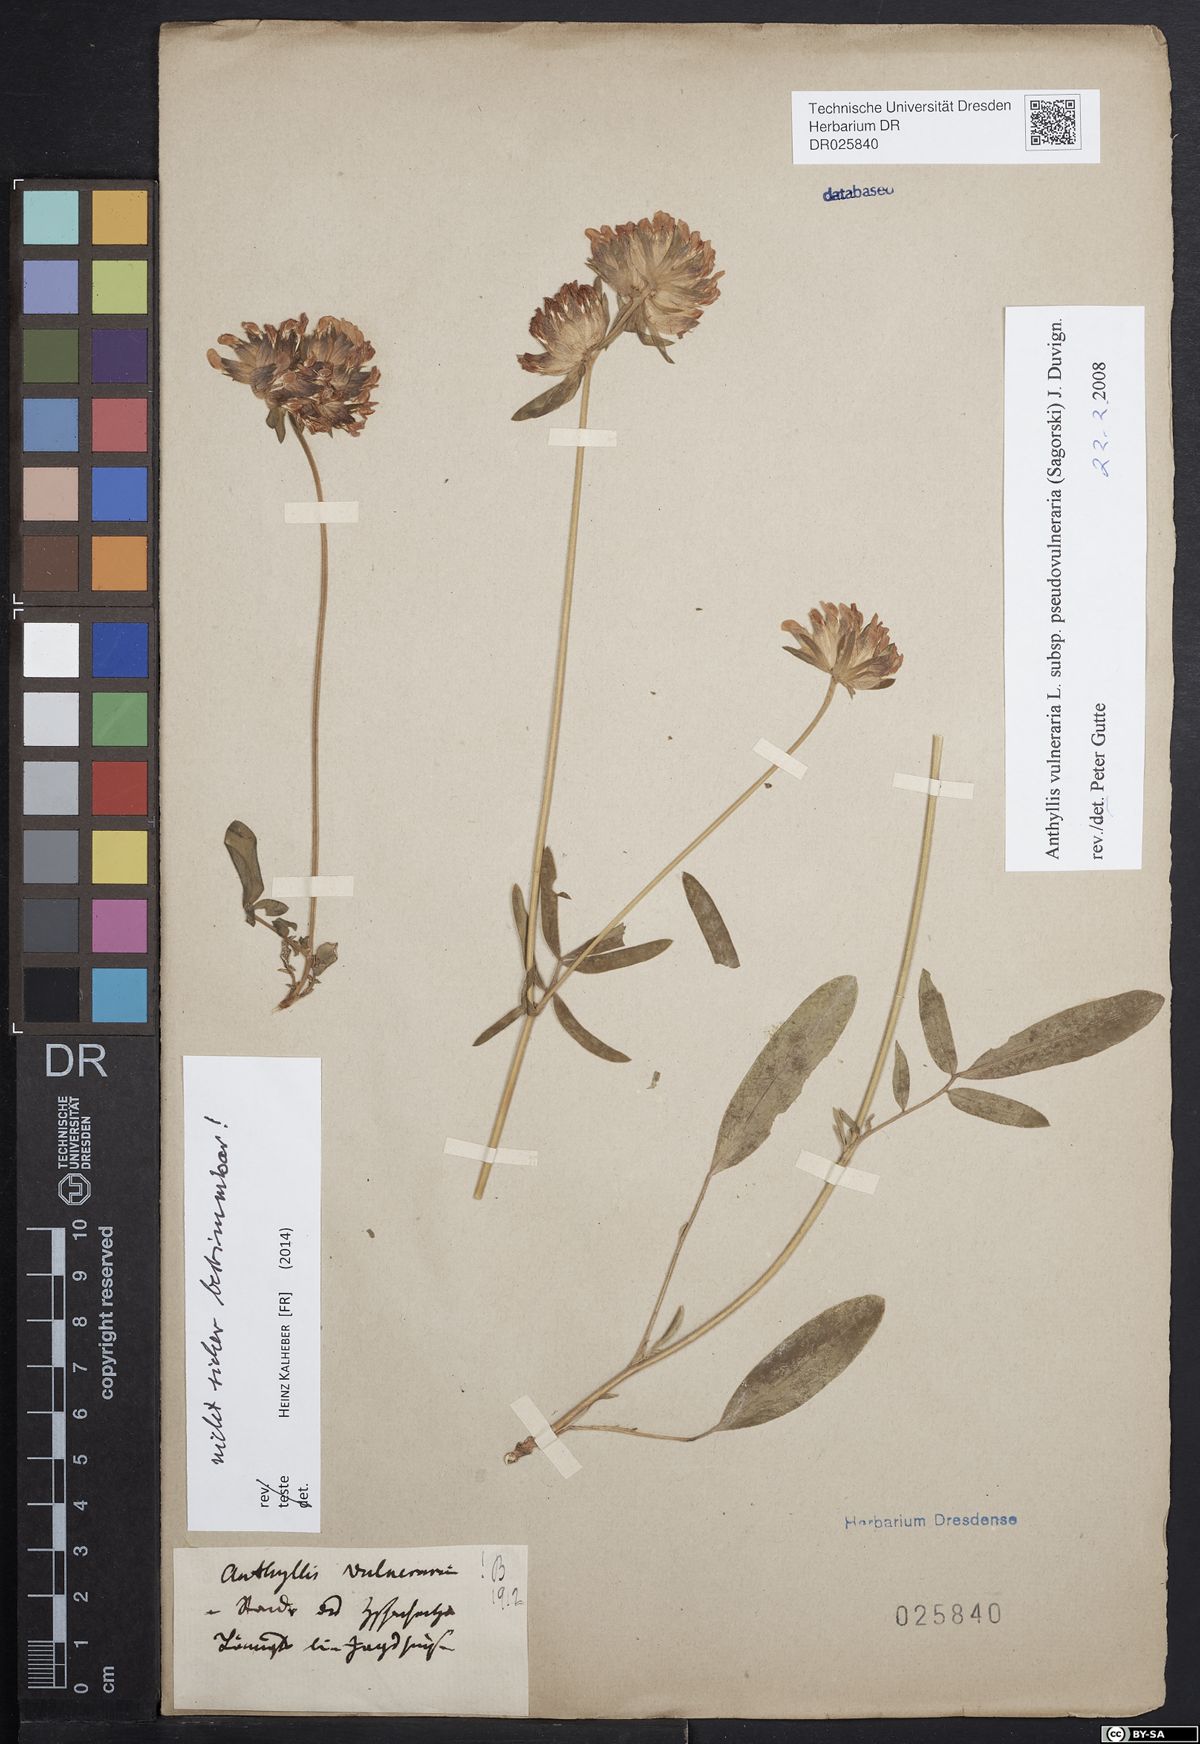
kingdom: Plantae
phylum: Tracheophyta
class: Magnoliopsida
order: Fabales
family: Fabaceae
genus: Anthyllis
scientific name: Anthyllis vulneraria
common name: Kidney vetch
